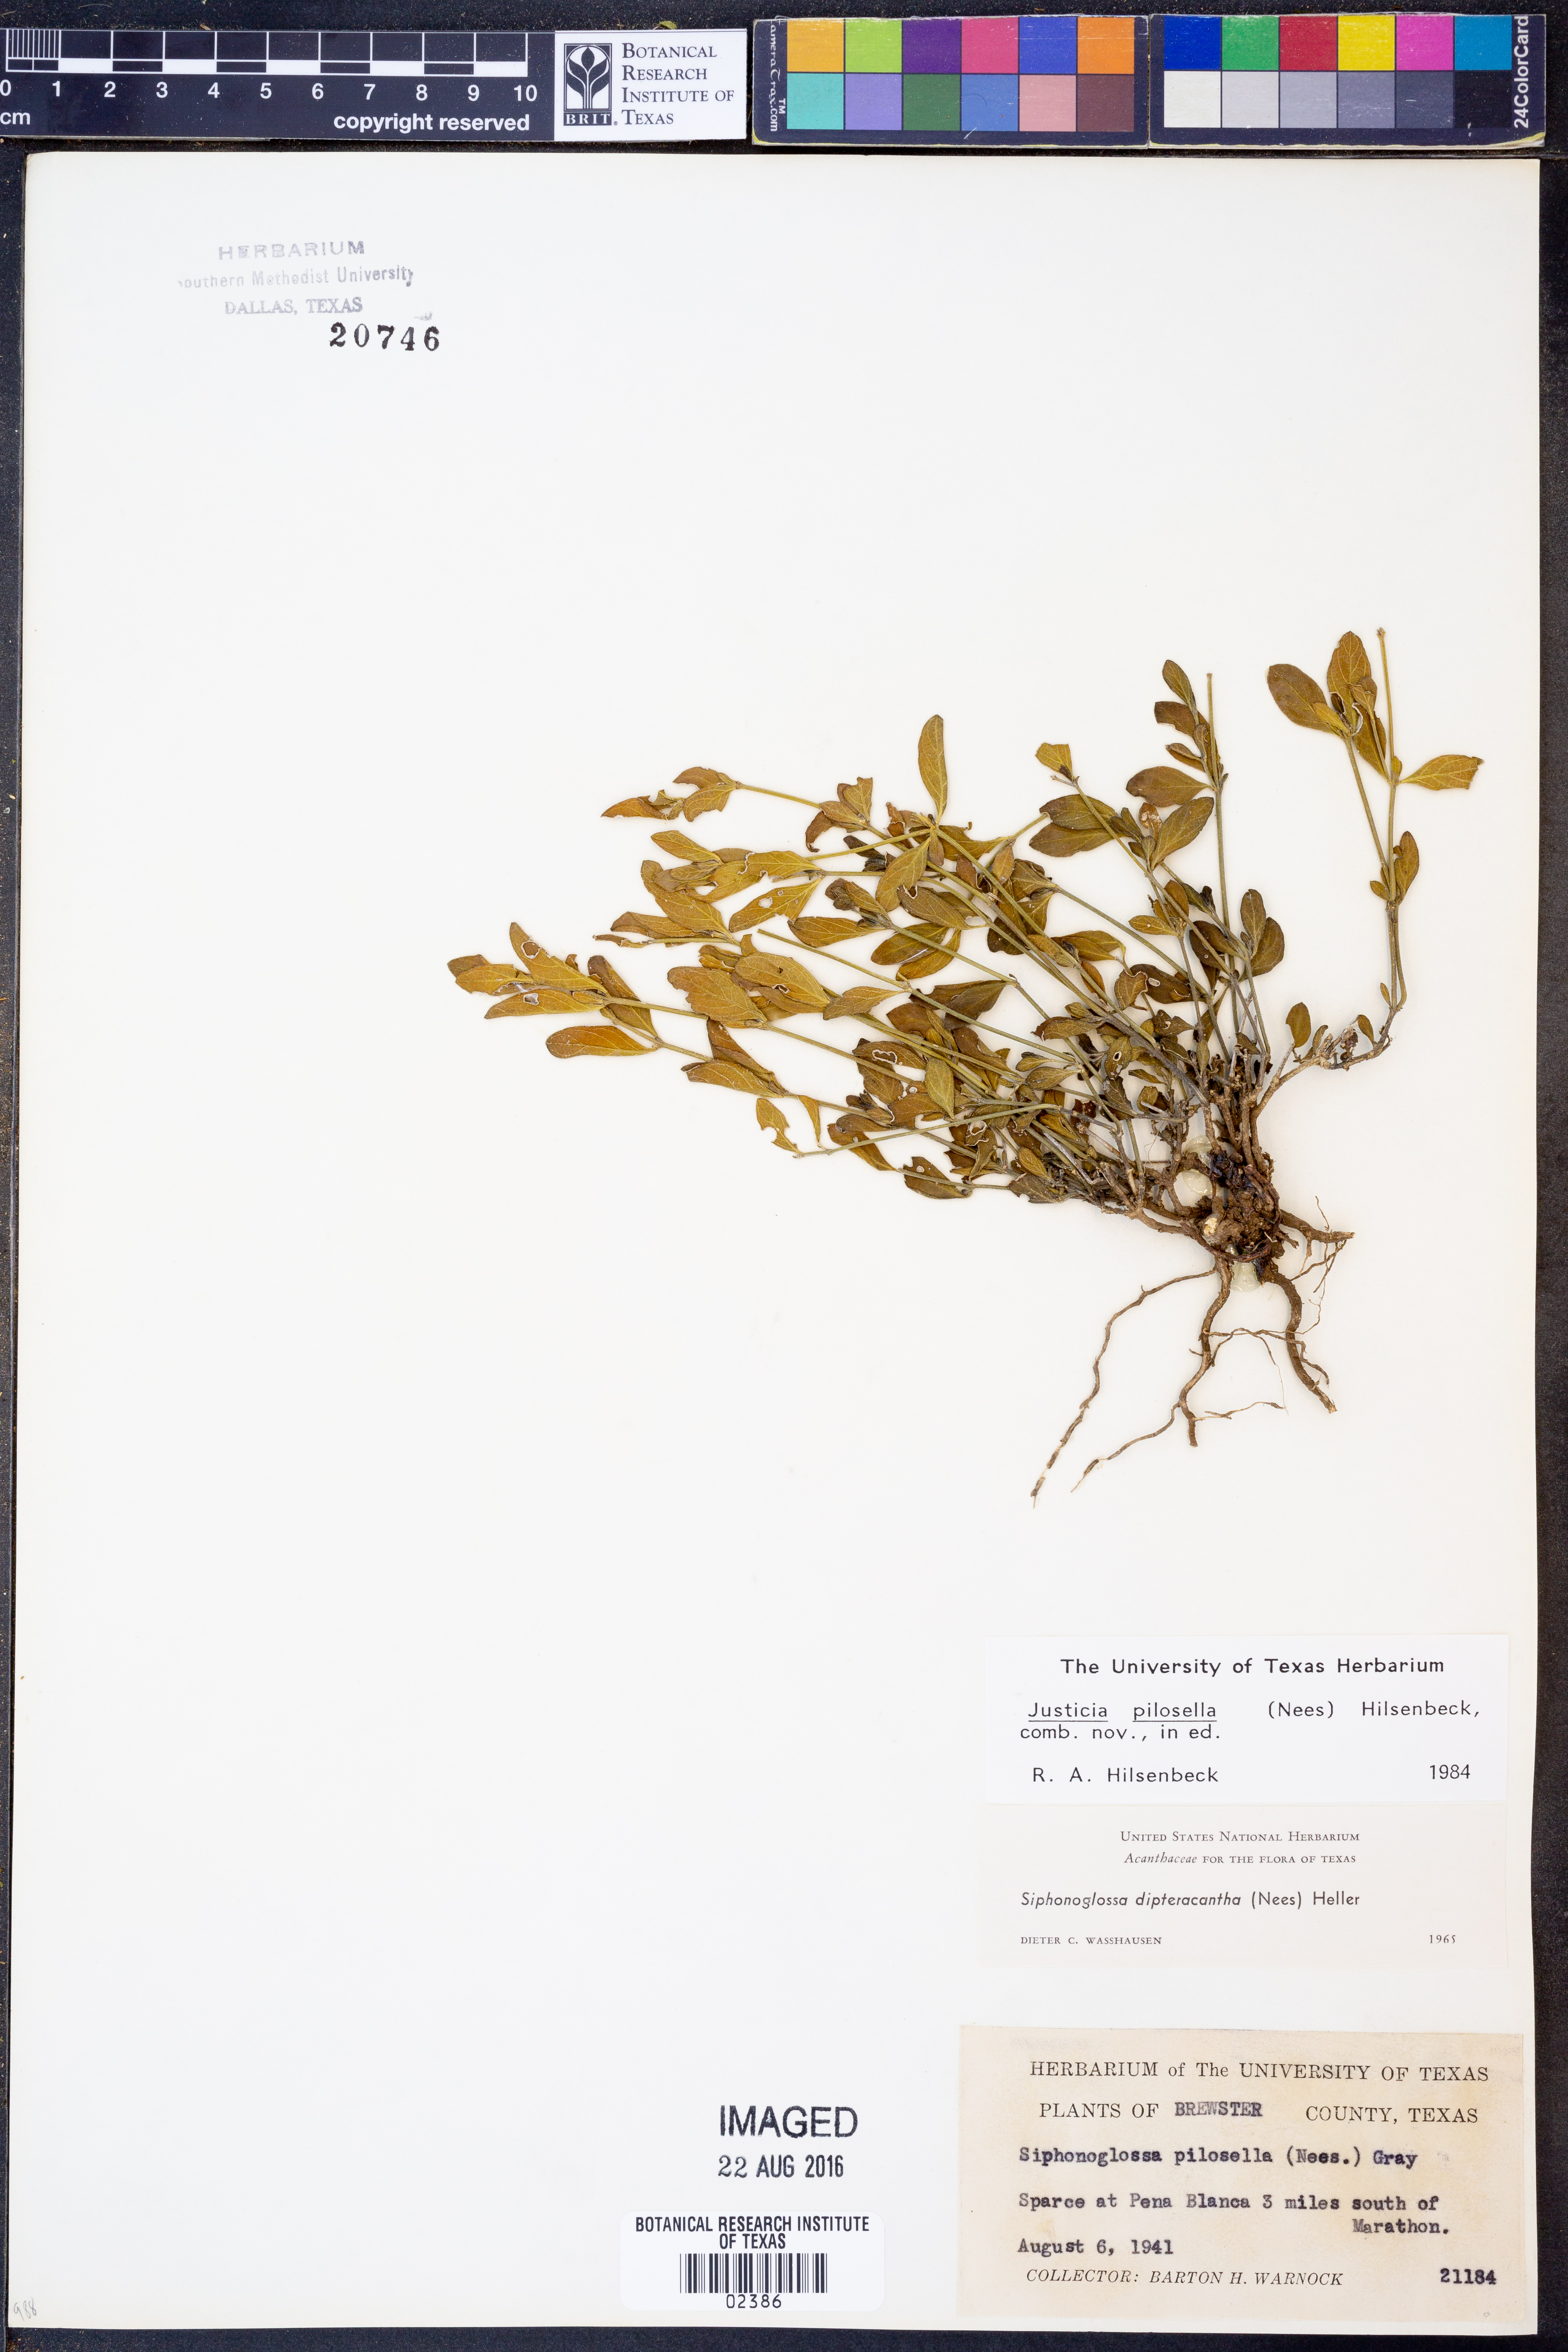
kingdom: Plantae
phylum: Tracheophyta
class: Magnoliopsida
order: Lamiales
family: Acanthaceae
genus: Justicia
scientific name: Justicia pilosella
